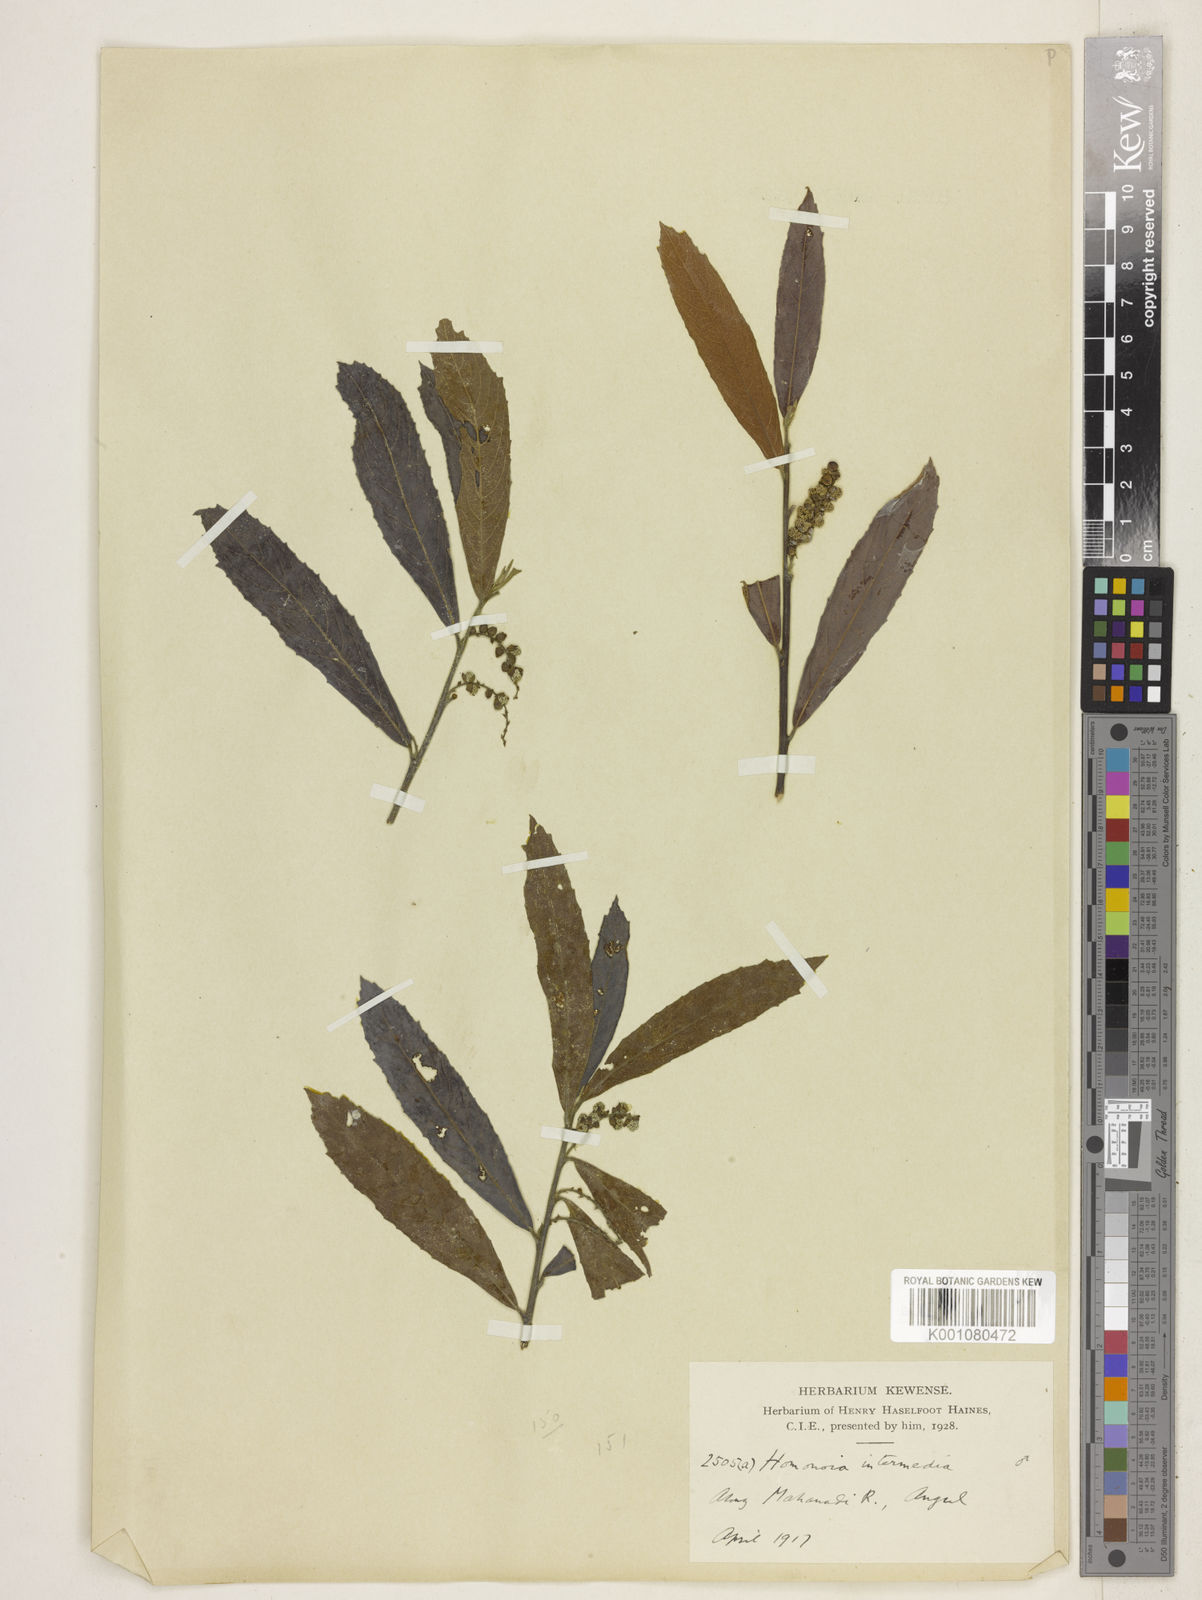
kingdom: Plantae
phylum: Tracheophyta
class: Magnoliopsida
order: Malpighiales
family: Euphorbiaceae
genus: Homonoia
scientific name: Homonoia intermedia
